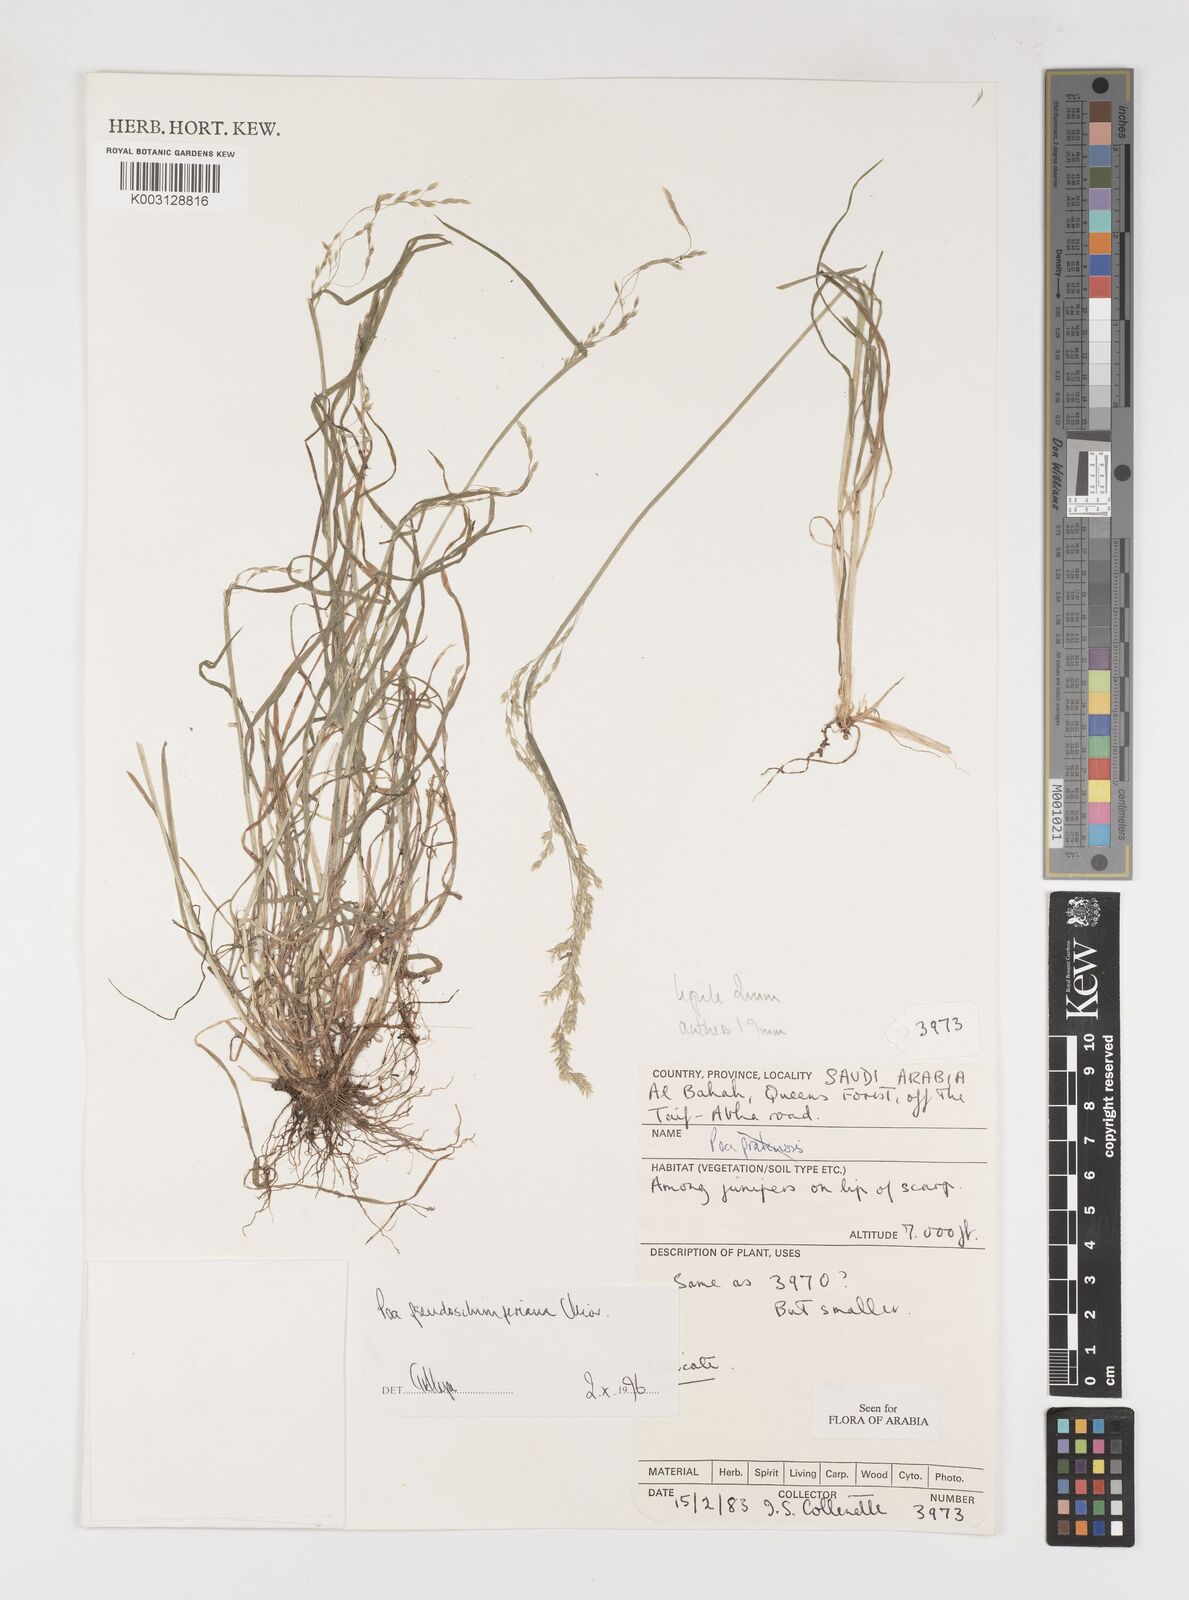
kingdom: Plantae
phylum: Tracheophyta
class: Liliopsida
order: Poales
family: Poaceae
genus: Poa
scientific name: Poa pseudoschimperiana
